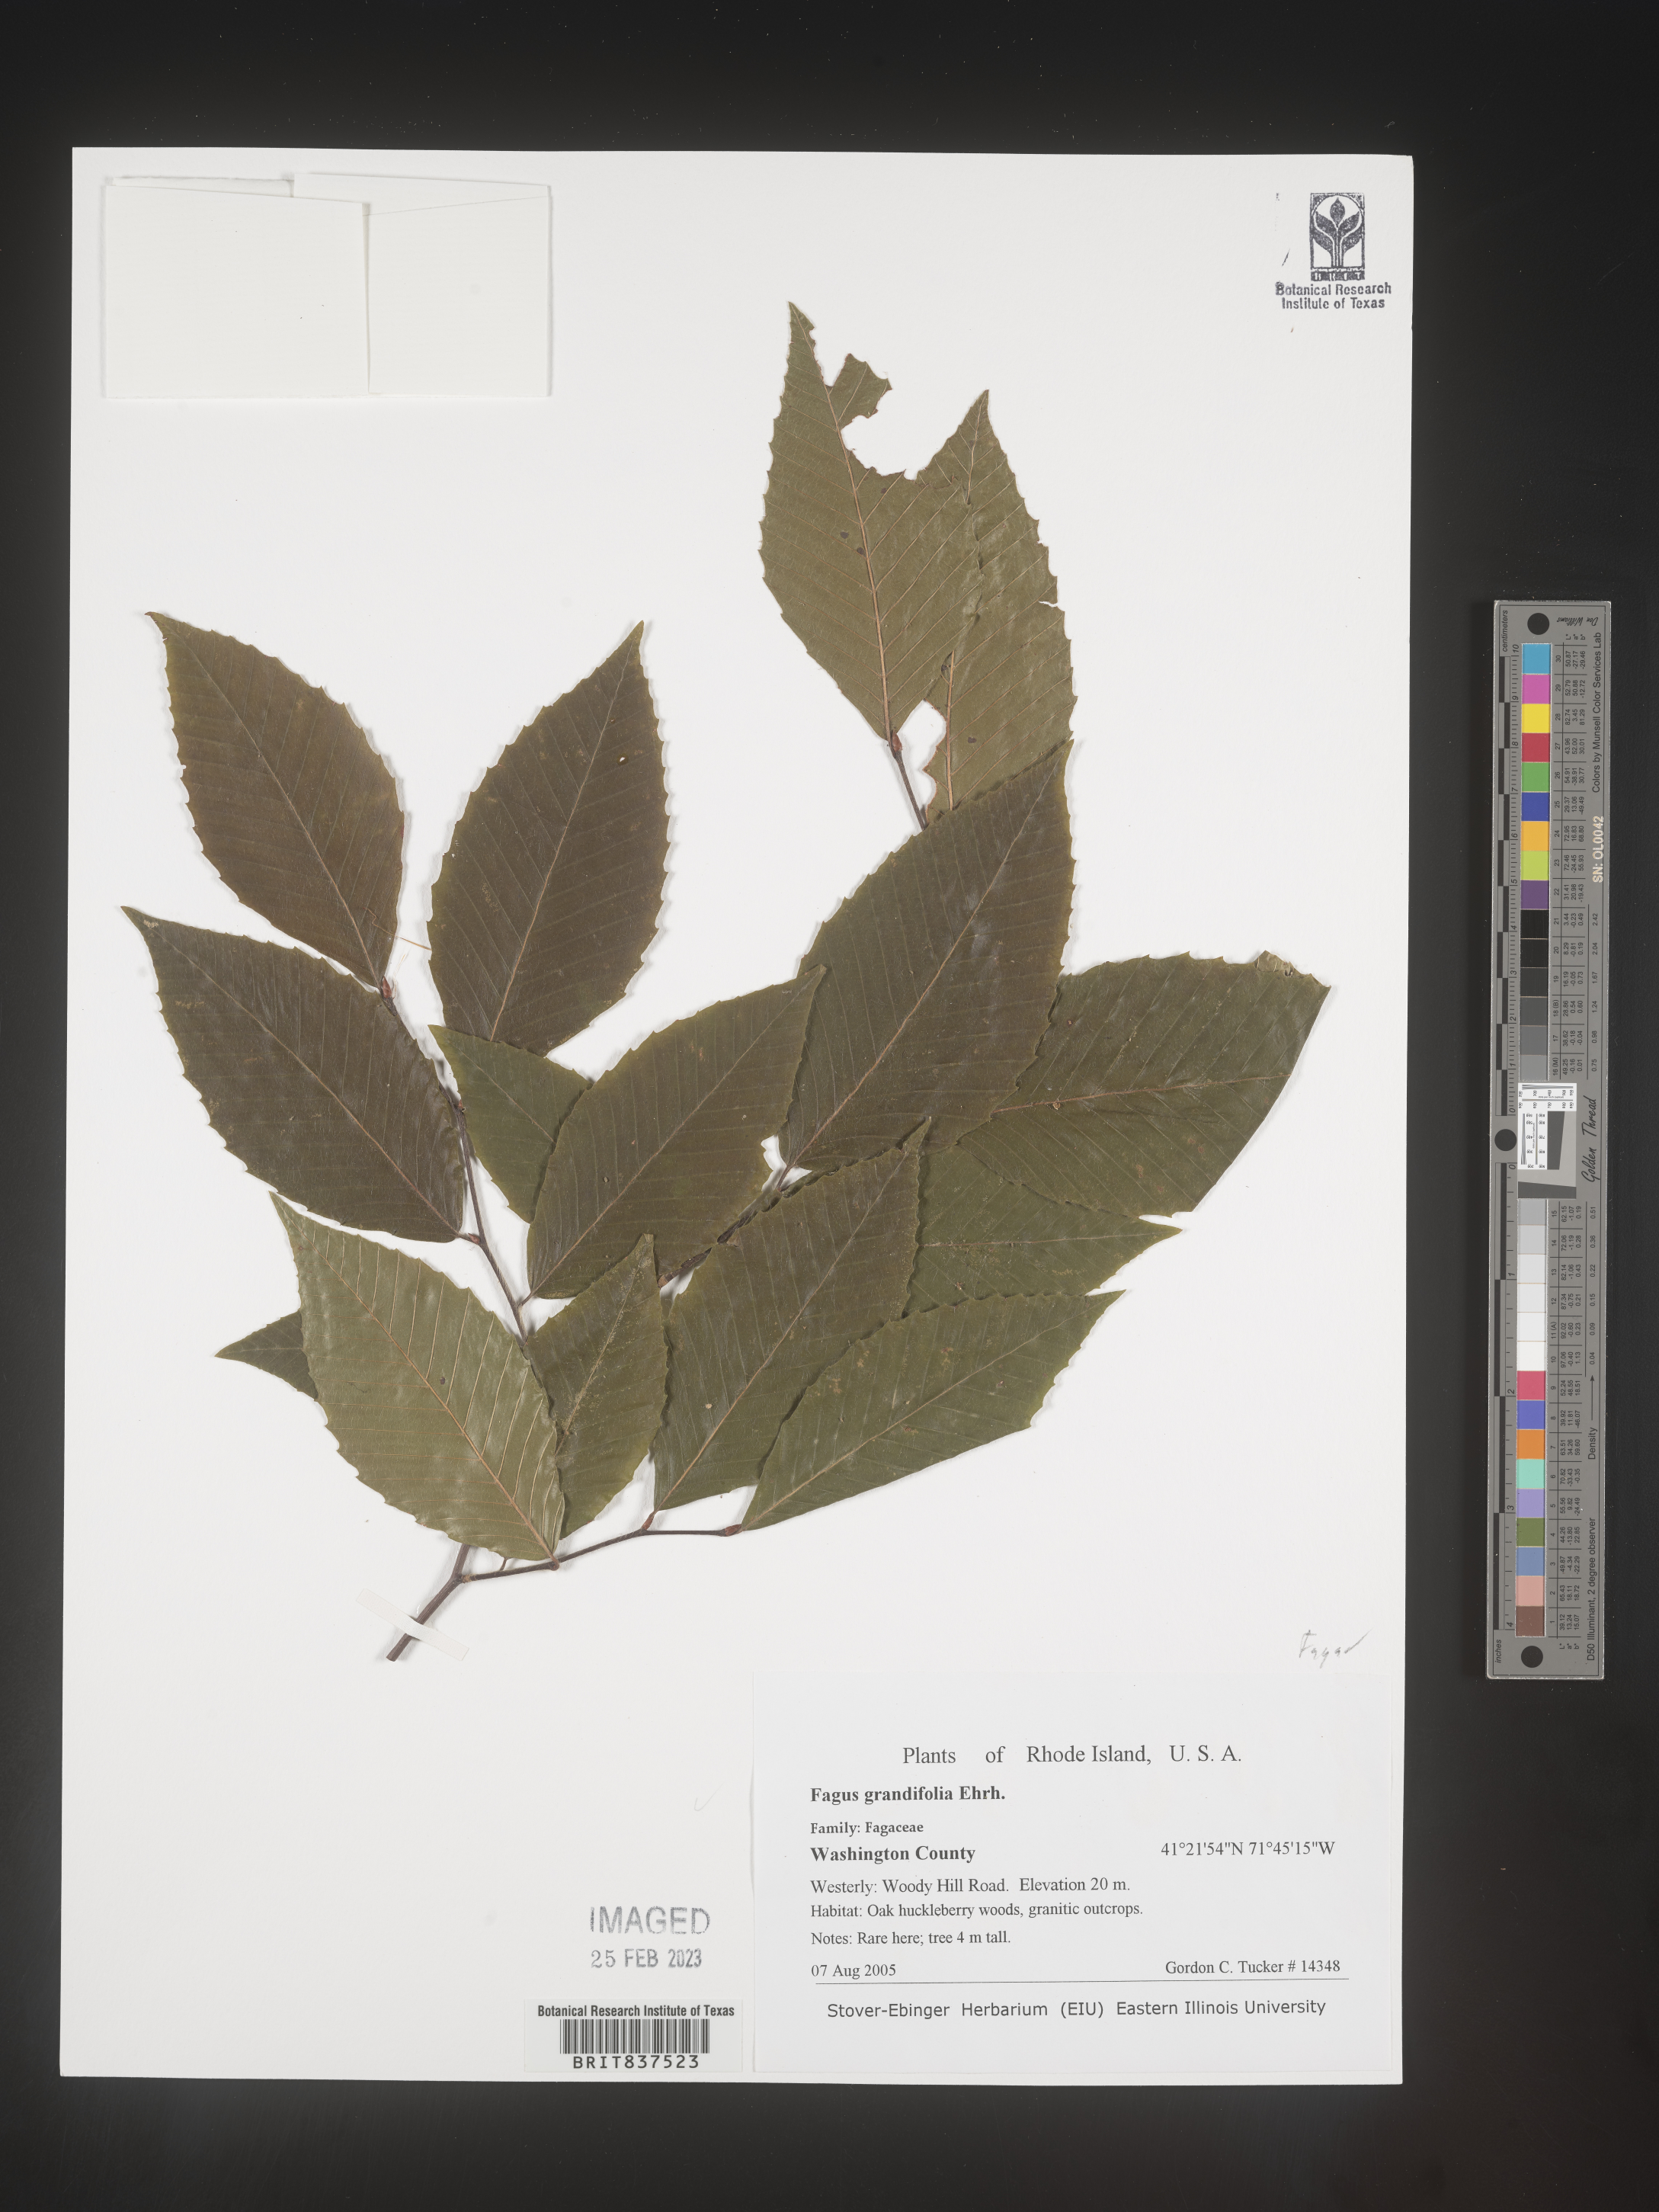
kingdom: Plantae
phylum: Tracheophyta
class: Magnoliopsida
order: Fagales
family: Fagaceae
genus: Fagus
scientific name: Fagus grandifolia
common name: American beech
